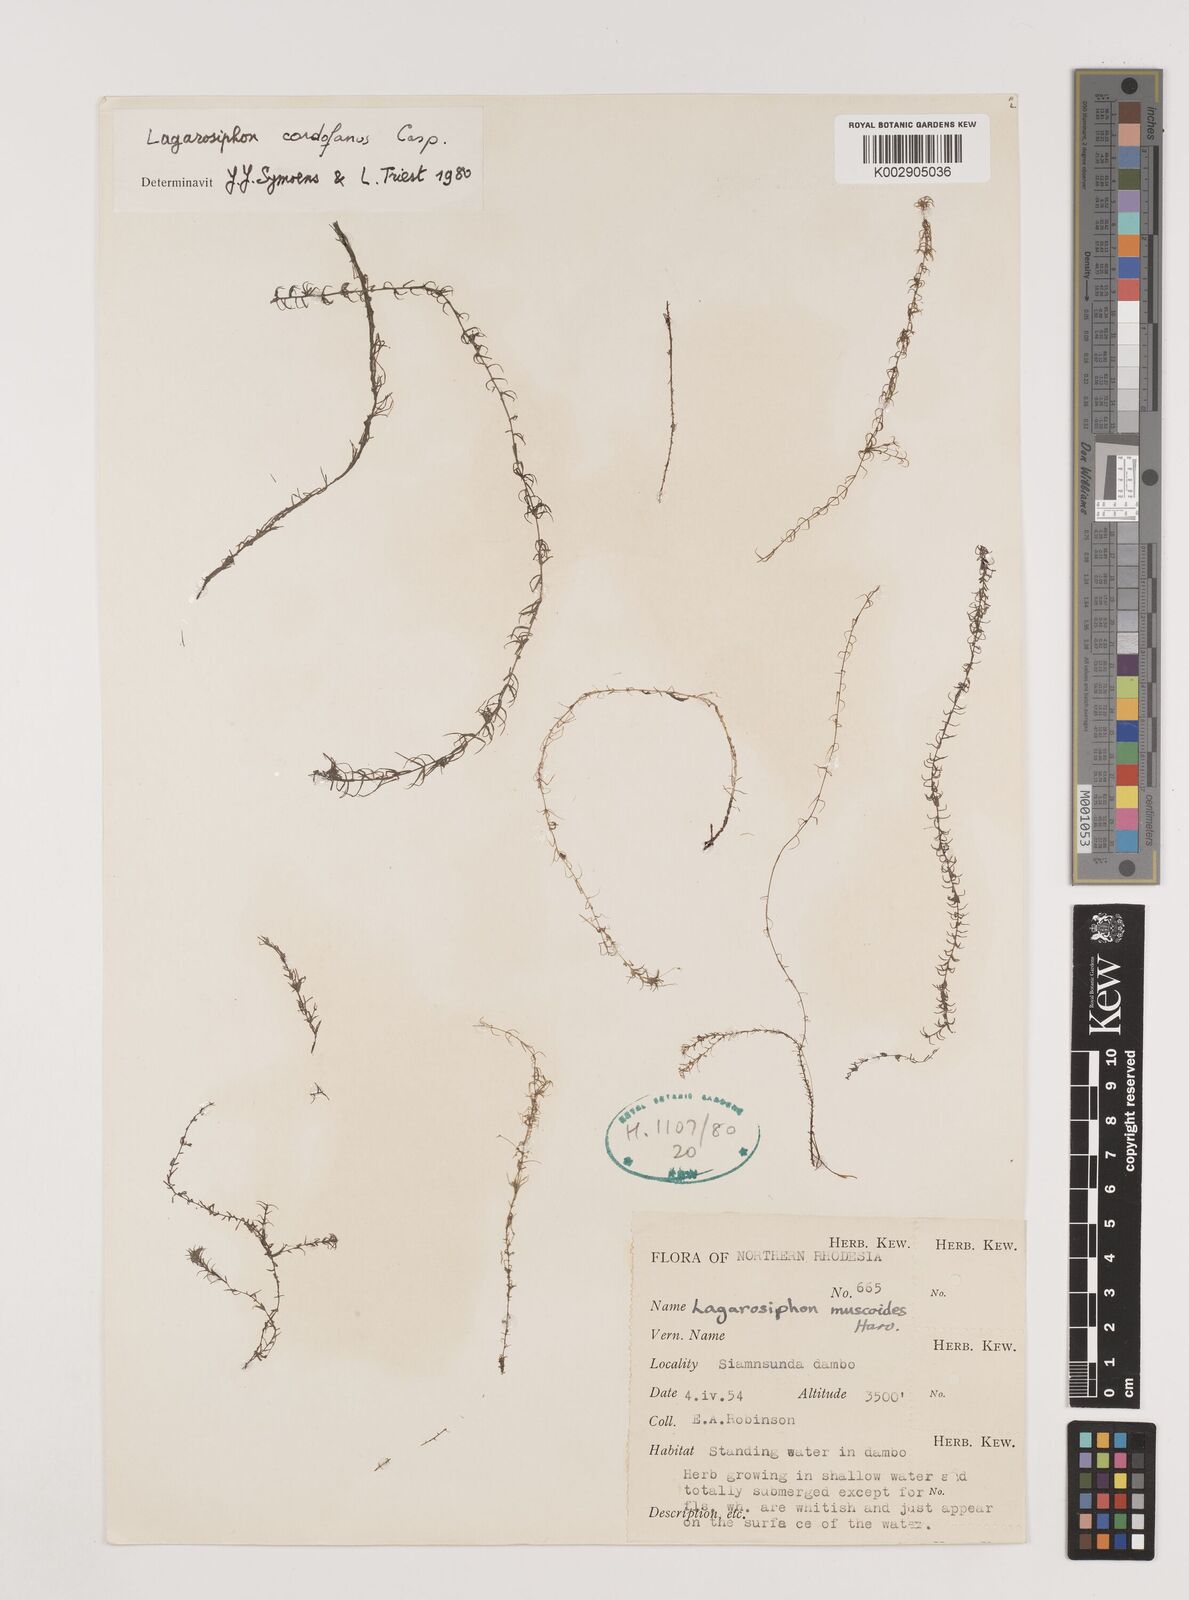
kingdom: Plantae
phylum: Tracheophyta
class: Liliopsida
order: Alismatales
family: Hydrocharitaceae
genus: Lagarosiphon
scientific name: Lagarosiphon cordofanus
